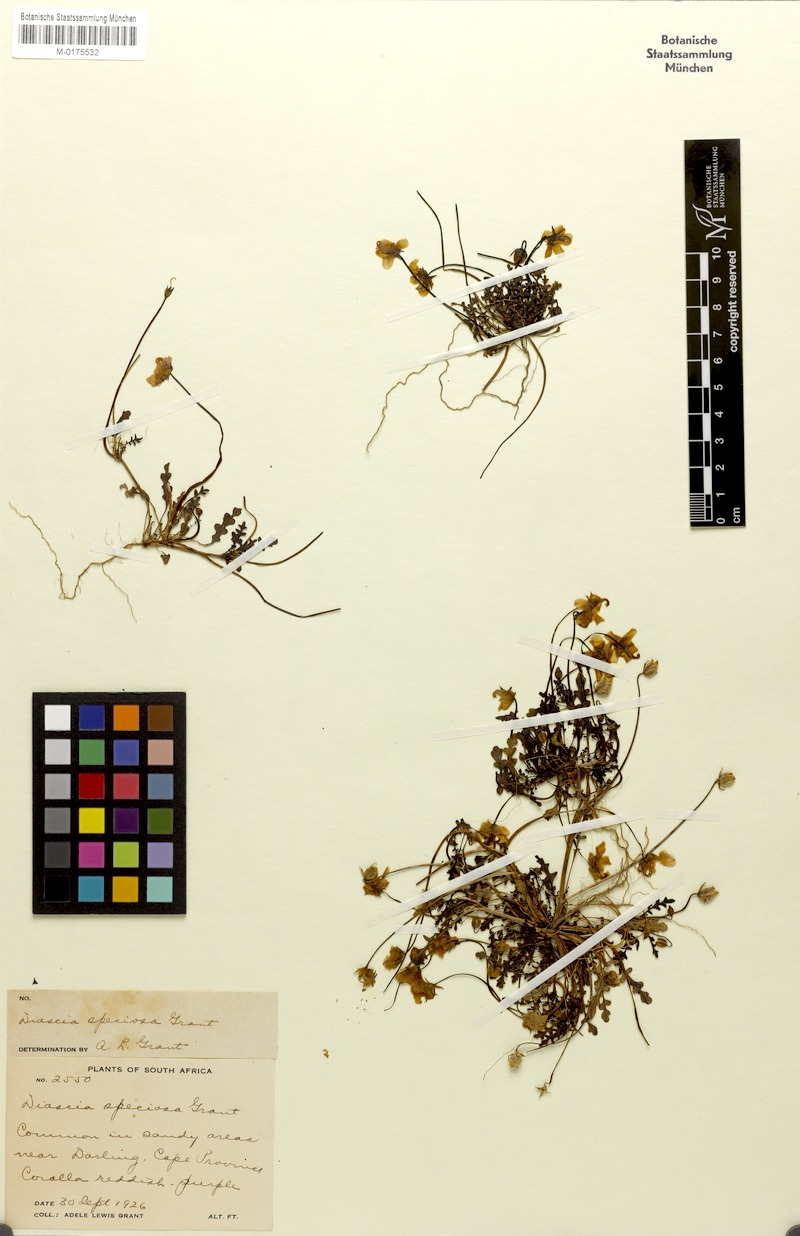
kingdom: Plantae
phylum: Tracheophyta
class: Magnoliopsida
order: Lamiales
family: Scrophulariaceae
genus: Diascia
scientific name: Diascia speciosa
